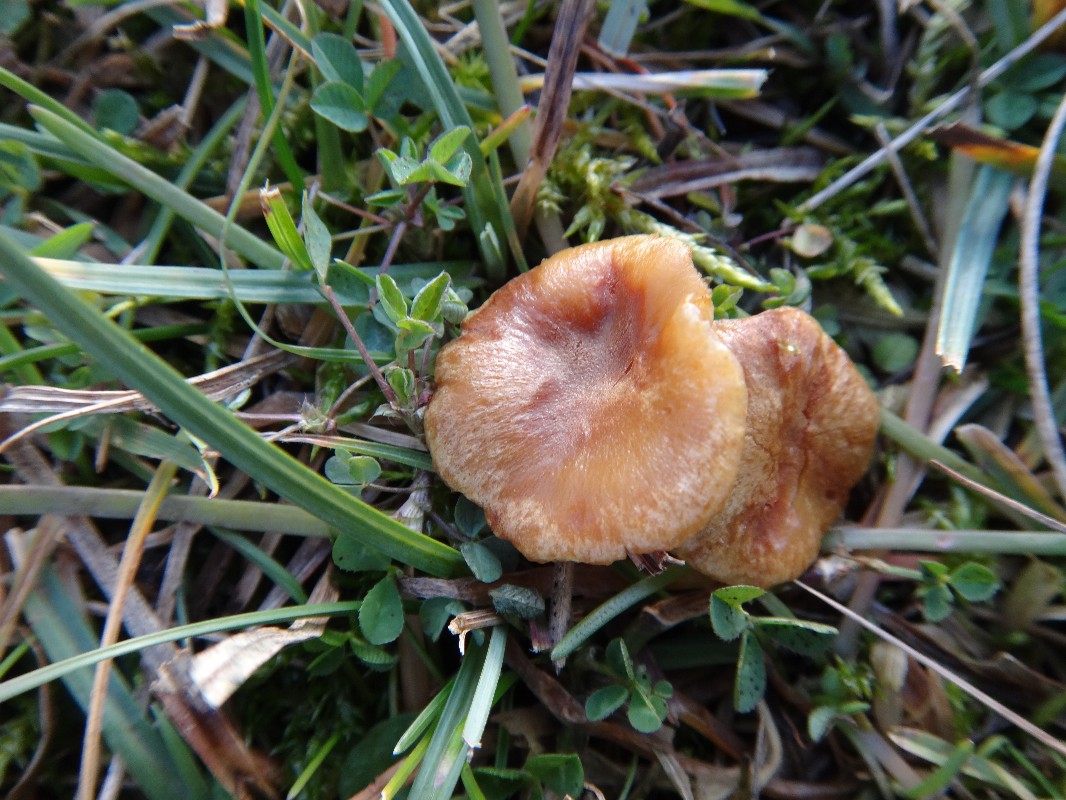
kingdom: Fungi
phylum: Basidiomycota
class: Agaricomycetes
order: Agaricales
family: Strophariaceae
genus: Pholiota
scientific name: Pholiota conissans
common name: pile-skælhat
